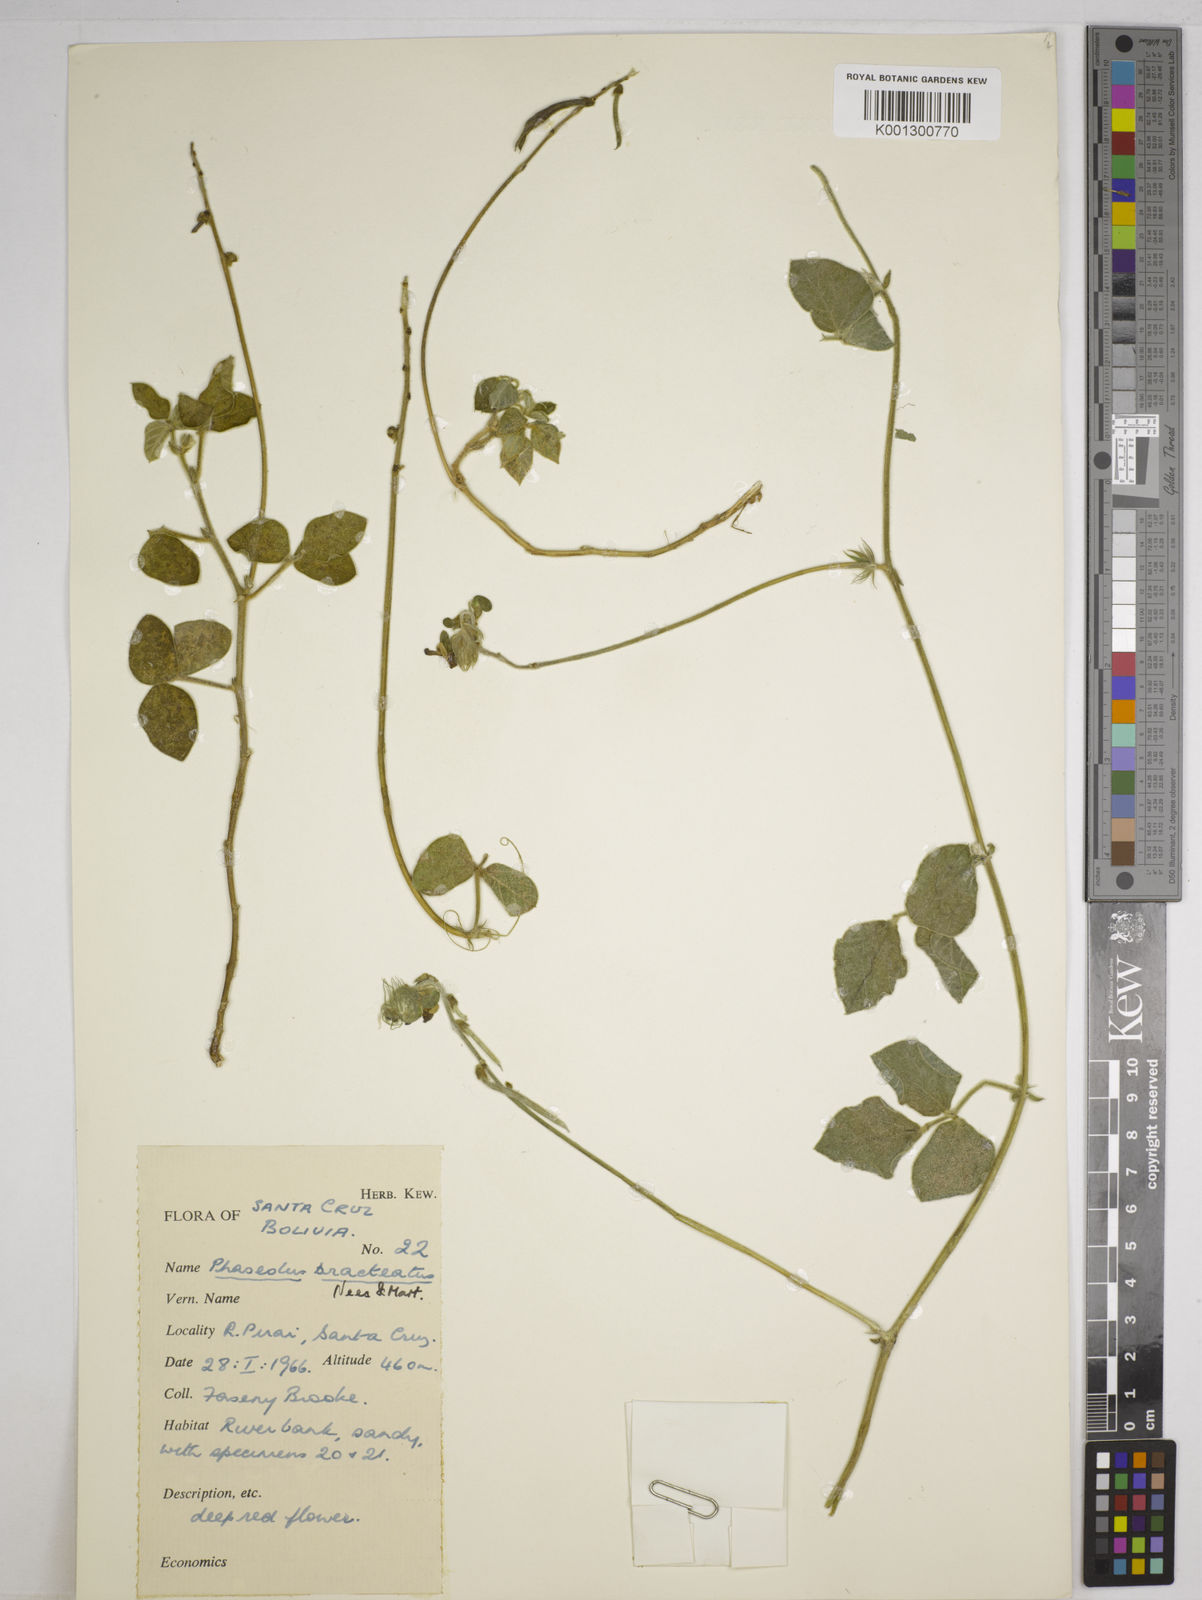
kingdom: Plantae
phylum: Tracheophyta
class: Magnoliopsida
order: Fabales
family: Fabaceae
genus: Macroptilium
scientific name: Macroptilium bracteatum
